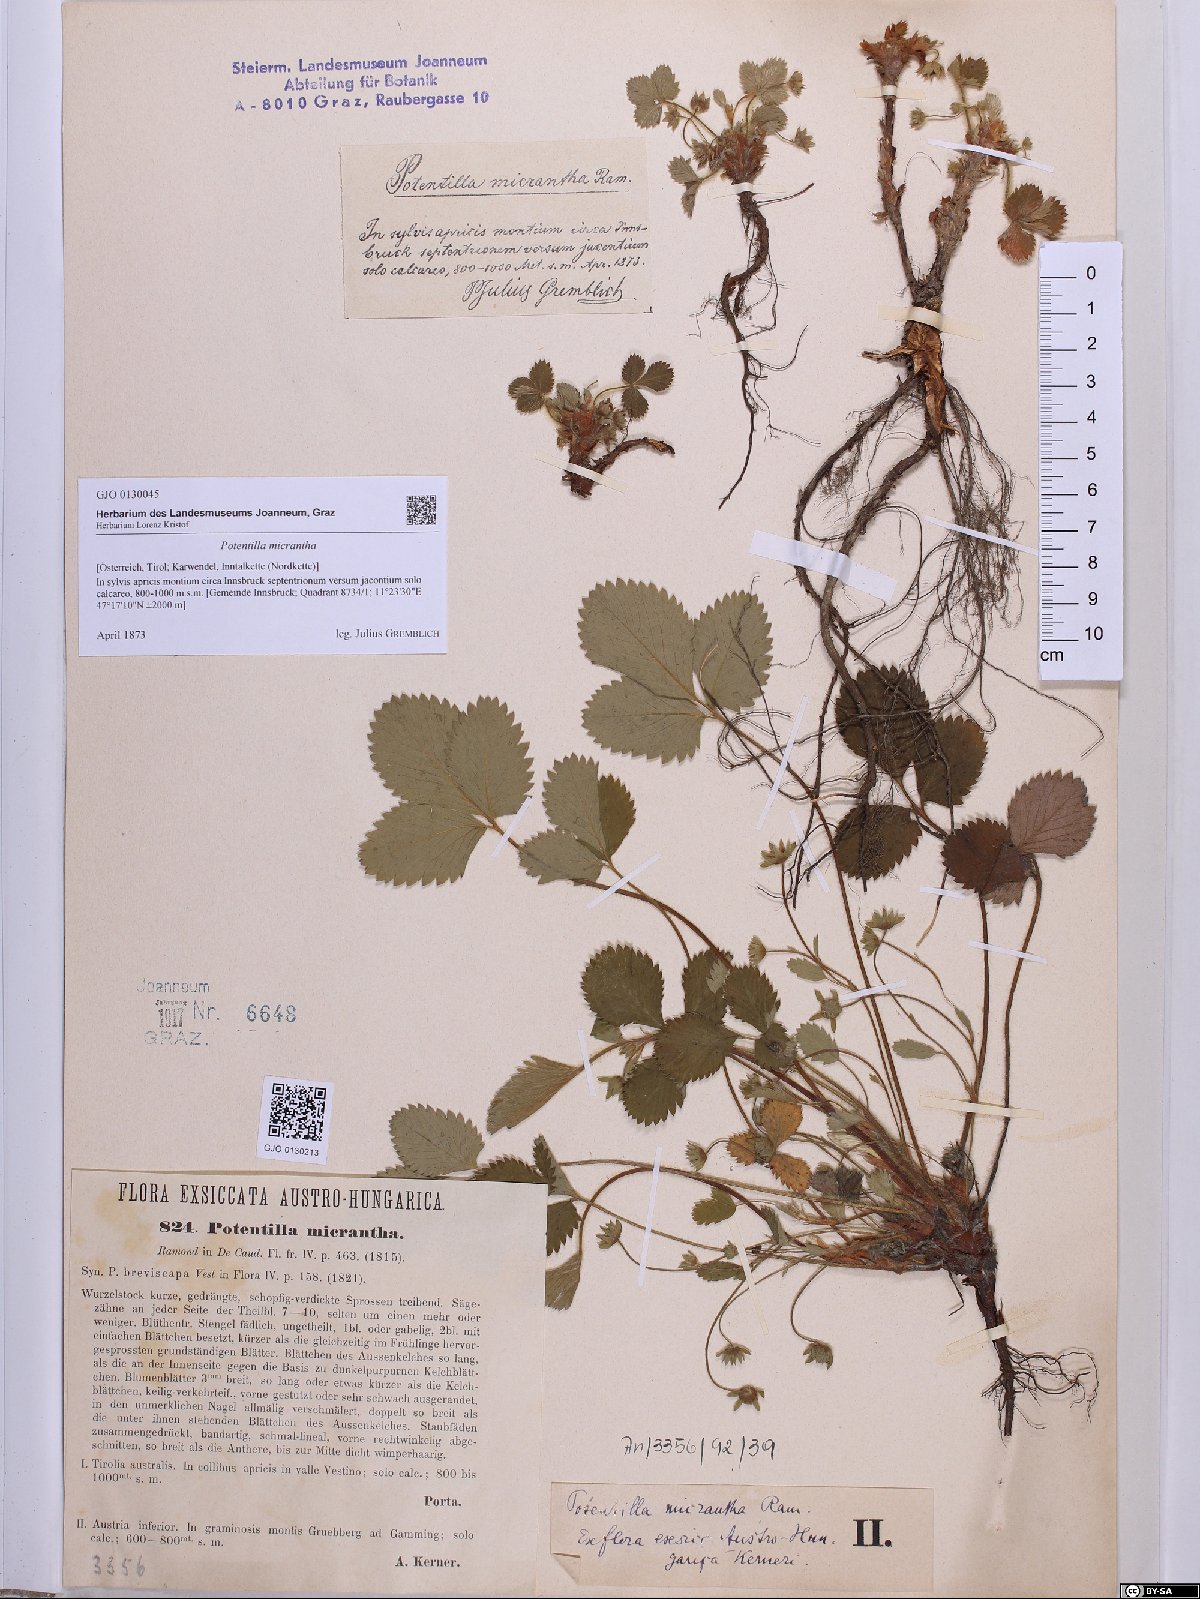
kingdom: Plantae
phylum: Tracheophyta
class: Magnoliopsida
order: Rosales
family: Rosaceae
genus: Potentilla
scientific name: Potentilla micrantha
